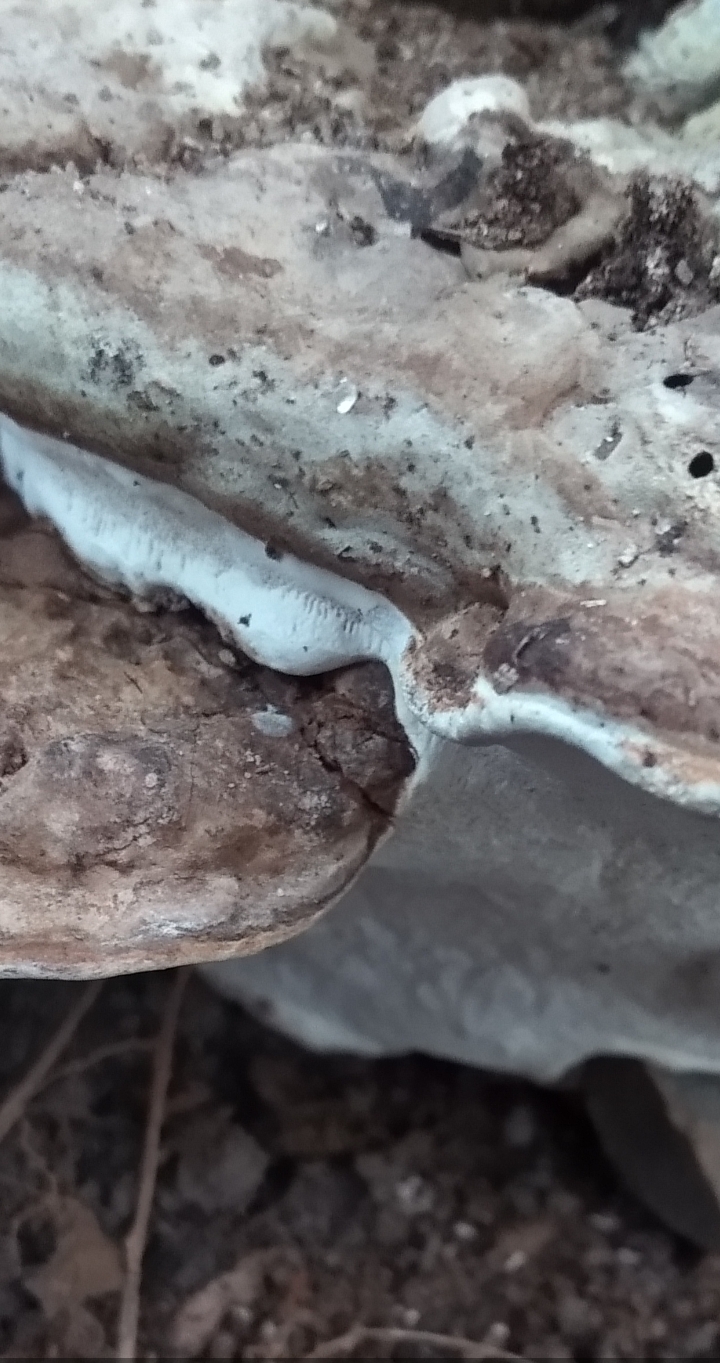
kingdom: Fungi
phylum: Basidiomycota
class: Agaricomycetes
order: Polyporales
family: Polyporaceae
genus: Ganoderma
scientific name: Ganoderma applanatum
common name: flad lakporesvamp
